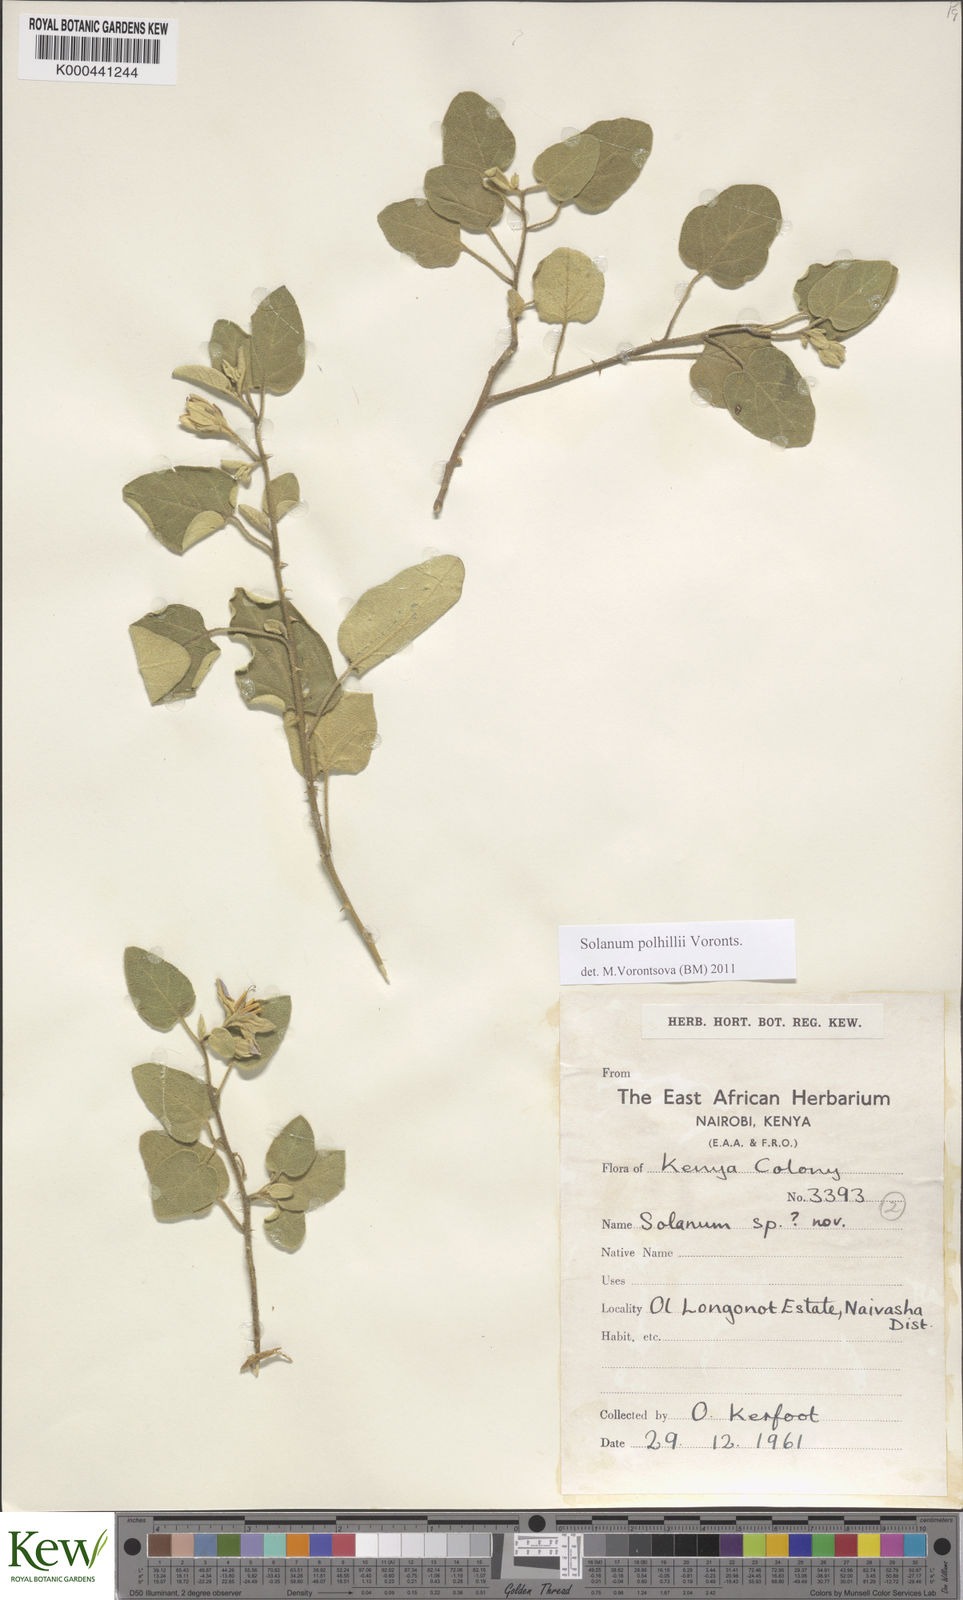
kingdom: Plantae
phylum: Tracheophyta
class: Magnoliopsida
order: Solanales
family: Solanaceae
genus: Solanum
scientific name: Solanum polhillii
